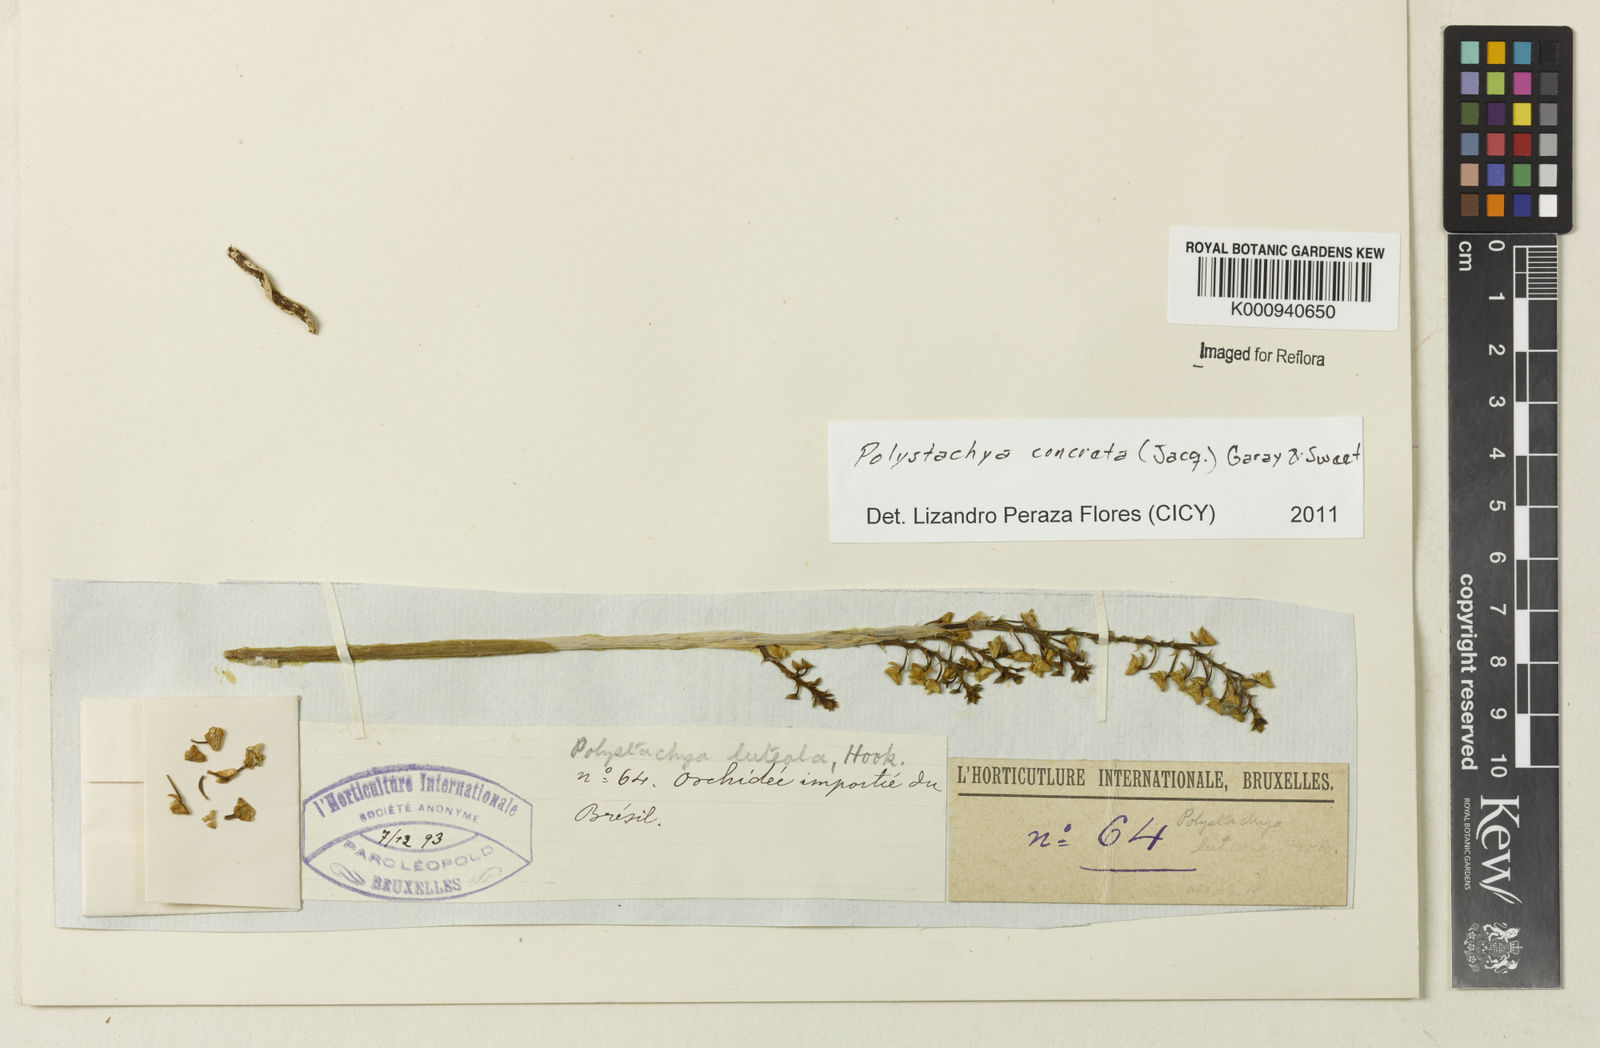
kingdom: Plantae
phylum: Tracheophyta
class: Liliopsida
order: Asparagales
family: Orchidaceae
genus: Polystachya
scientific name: Polystachya concreta
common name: Greater yellowspike orchid
